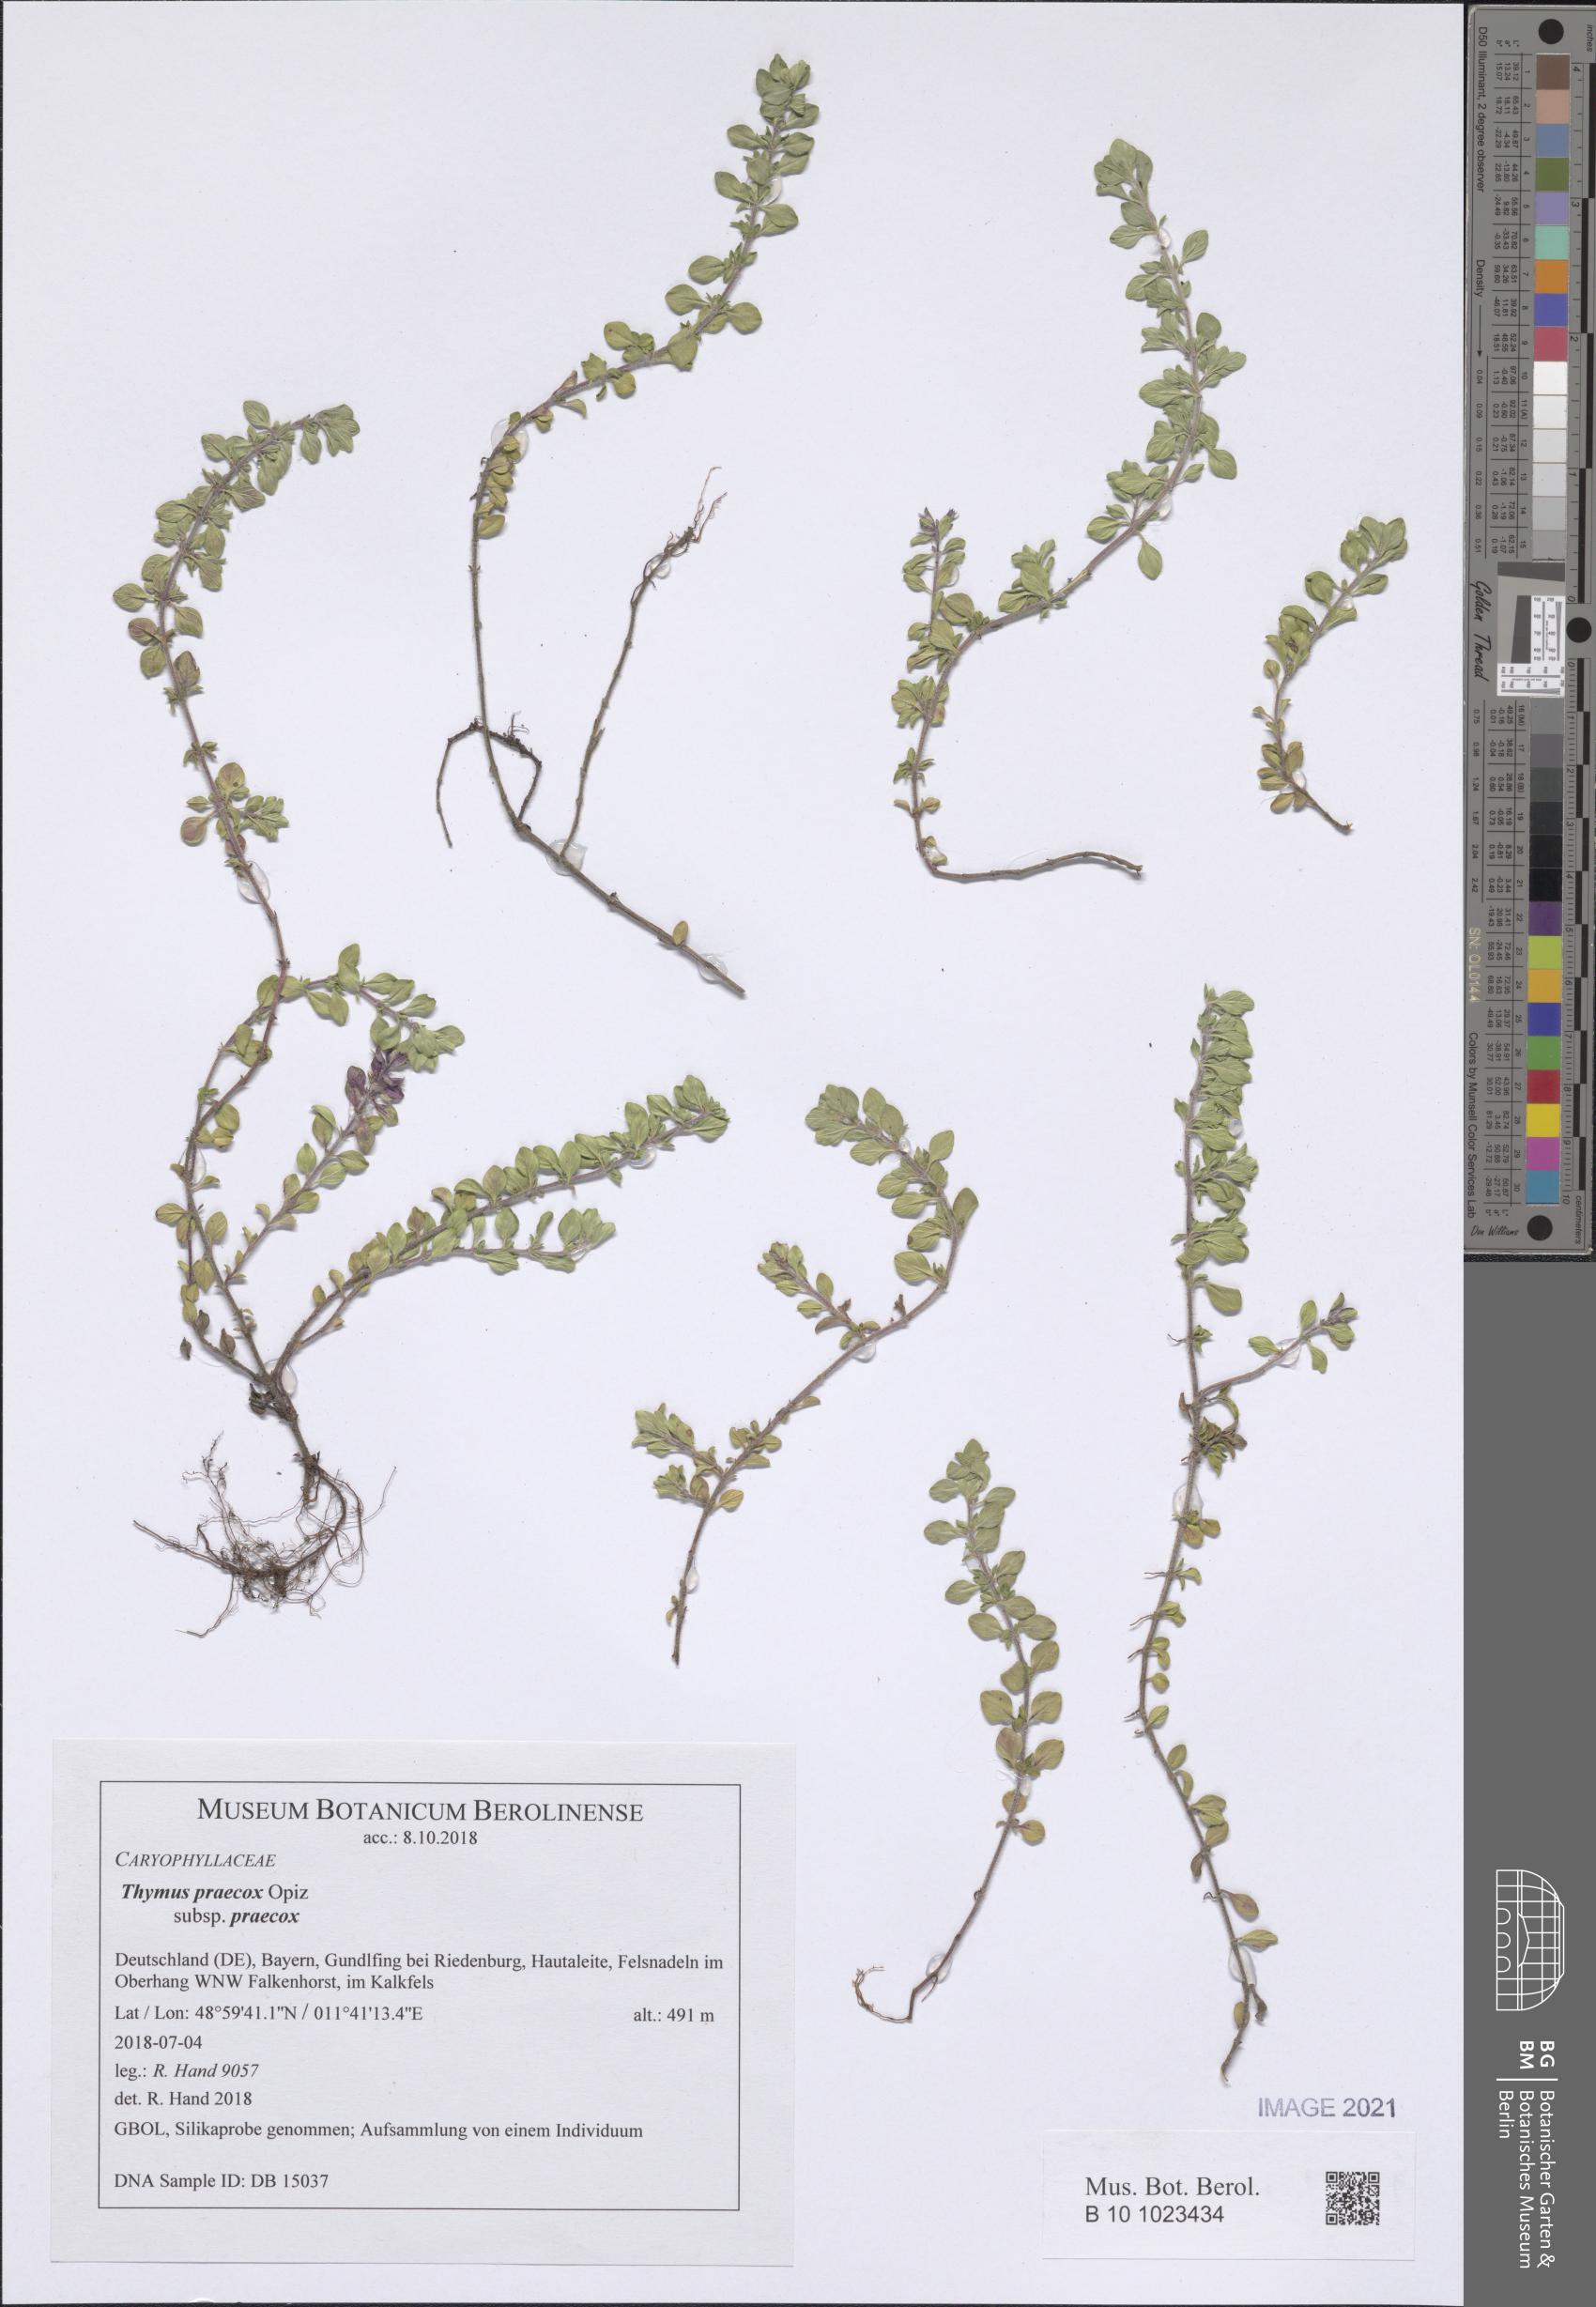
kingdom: Plantae
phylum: Tracheophyta
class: Magnoliopsida
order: Lamiales
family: Lamiaceae
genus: Thymus
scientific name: Thymus praecox
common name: Wild thyme
